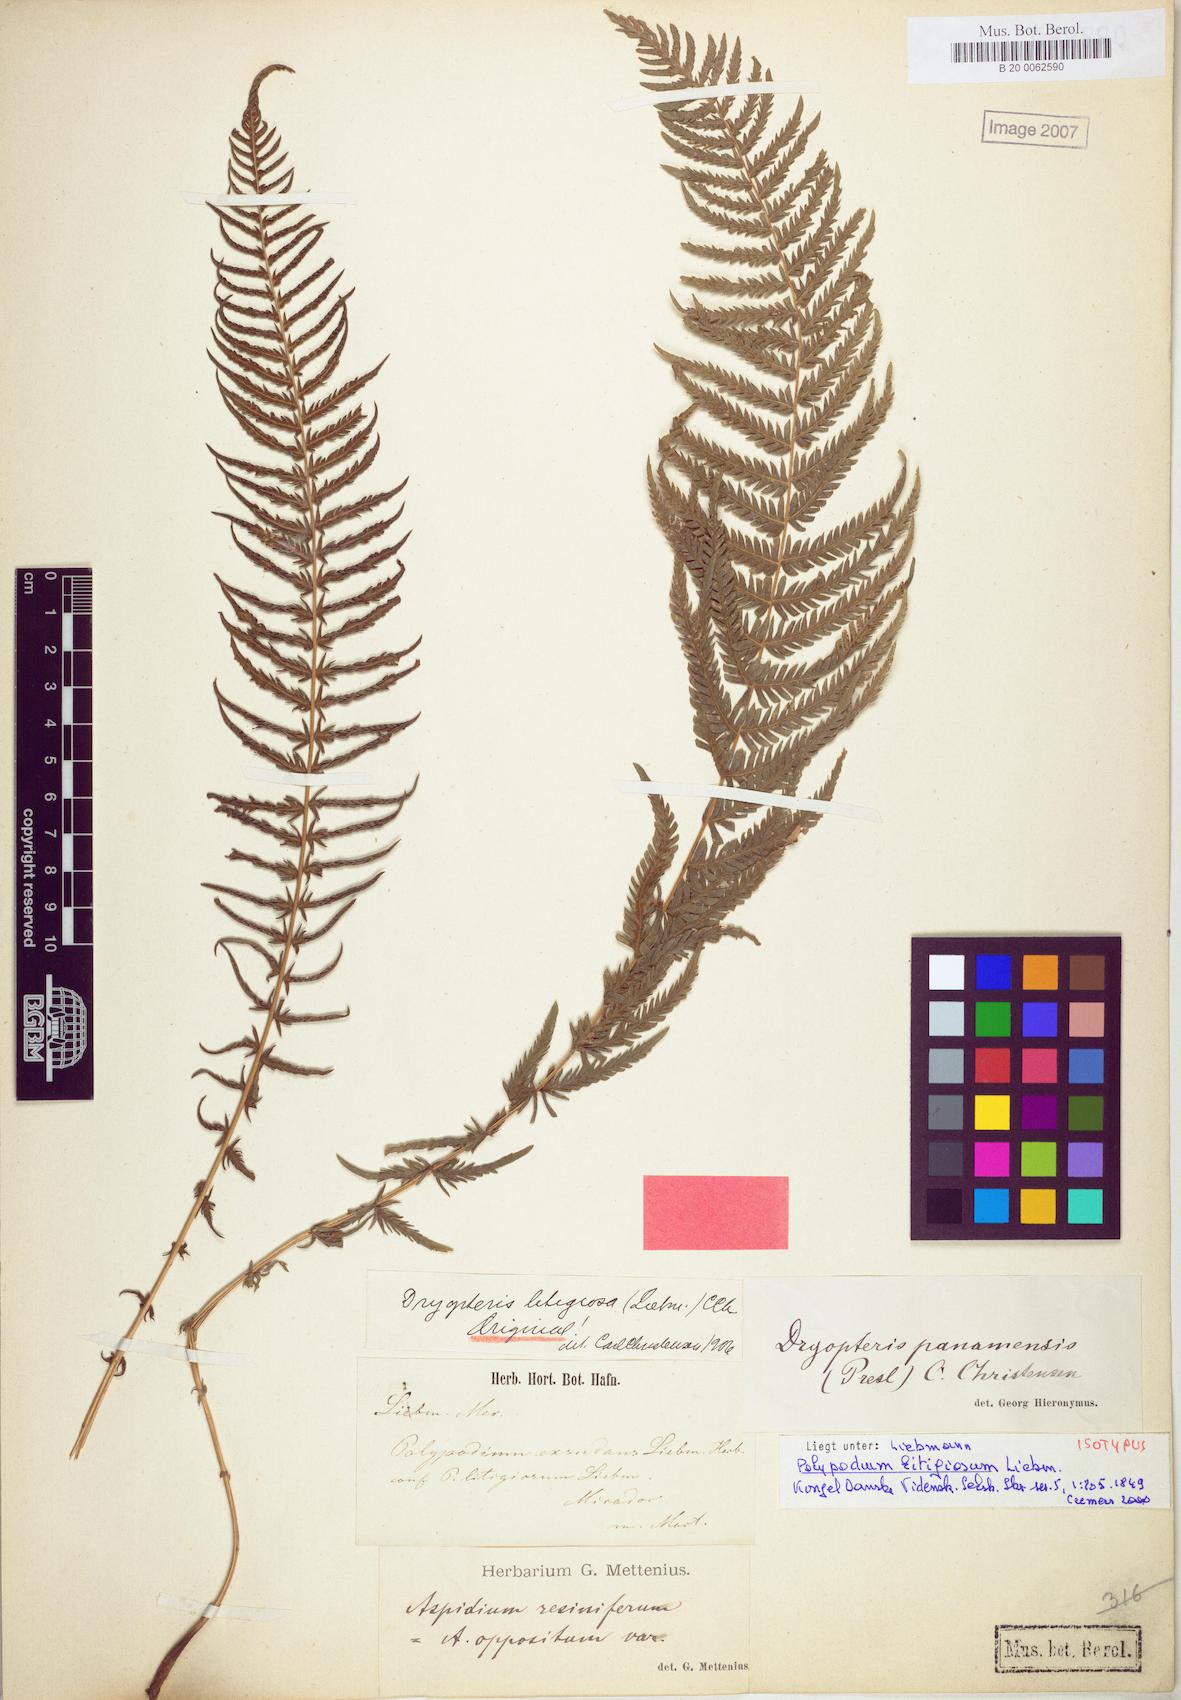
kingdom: Plantae
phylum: Tracheophyta
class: Polypodiopsida
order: Polypodiales
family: Thelypteridaceae
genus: Amauropelta
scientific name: Amauropelta resinifera
